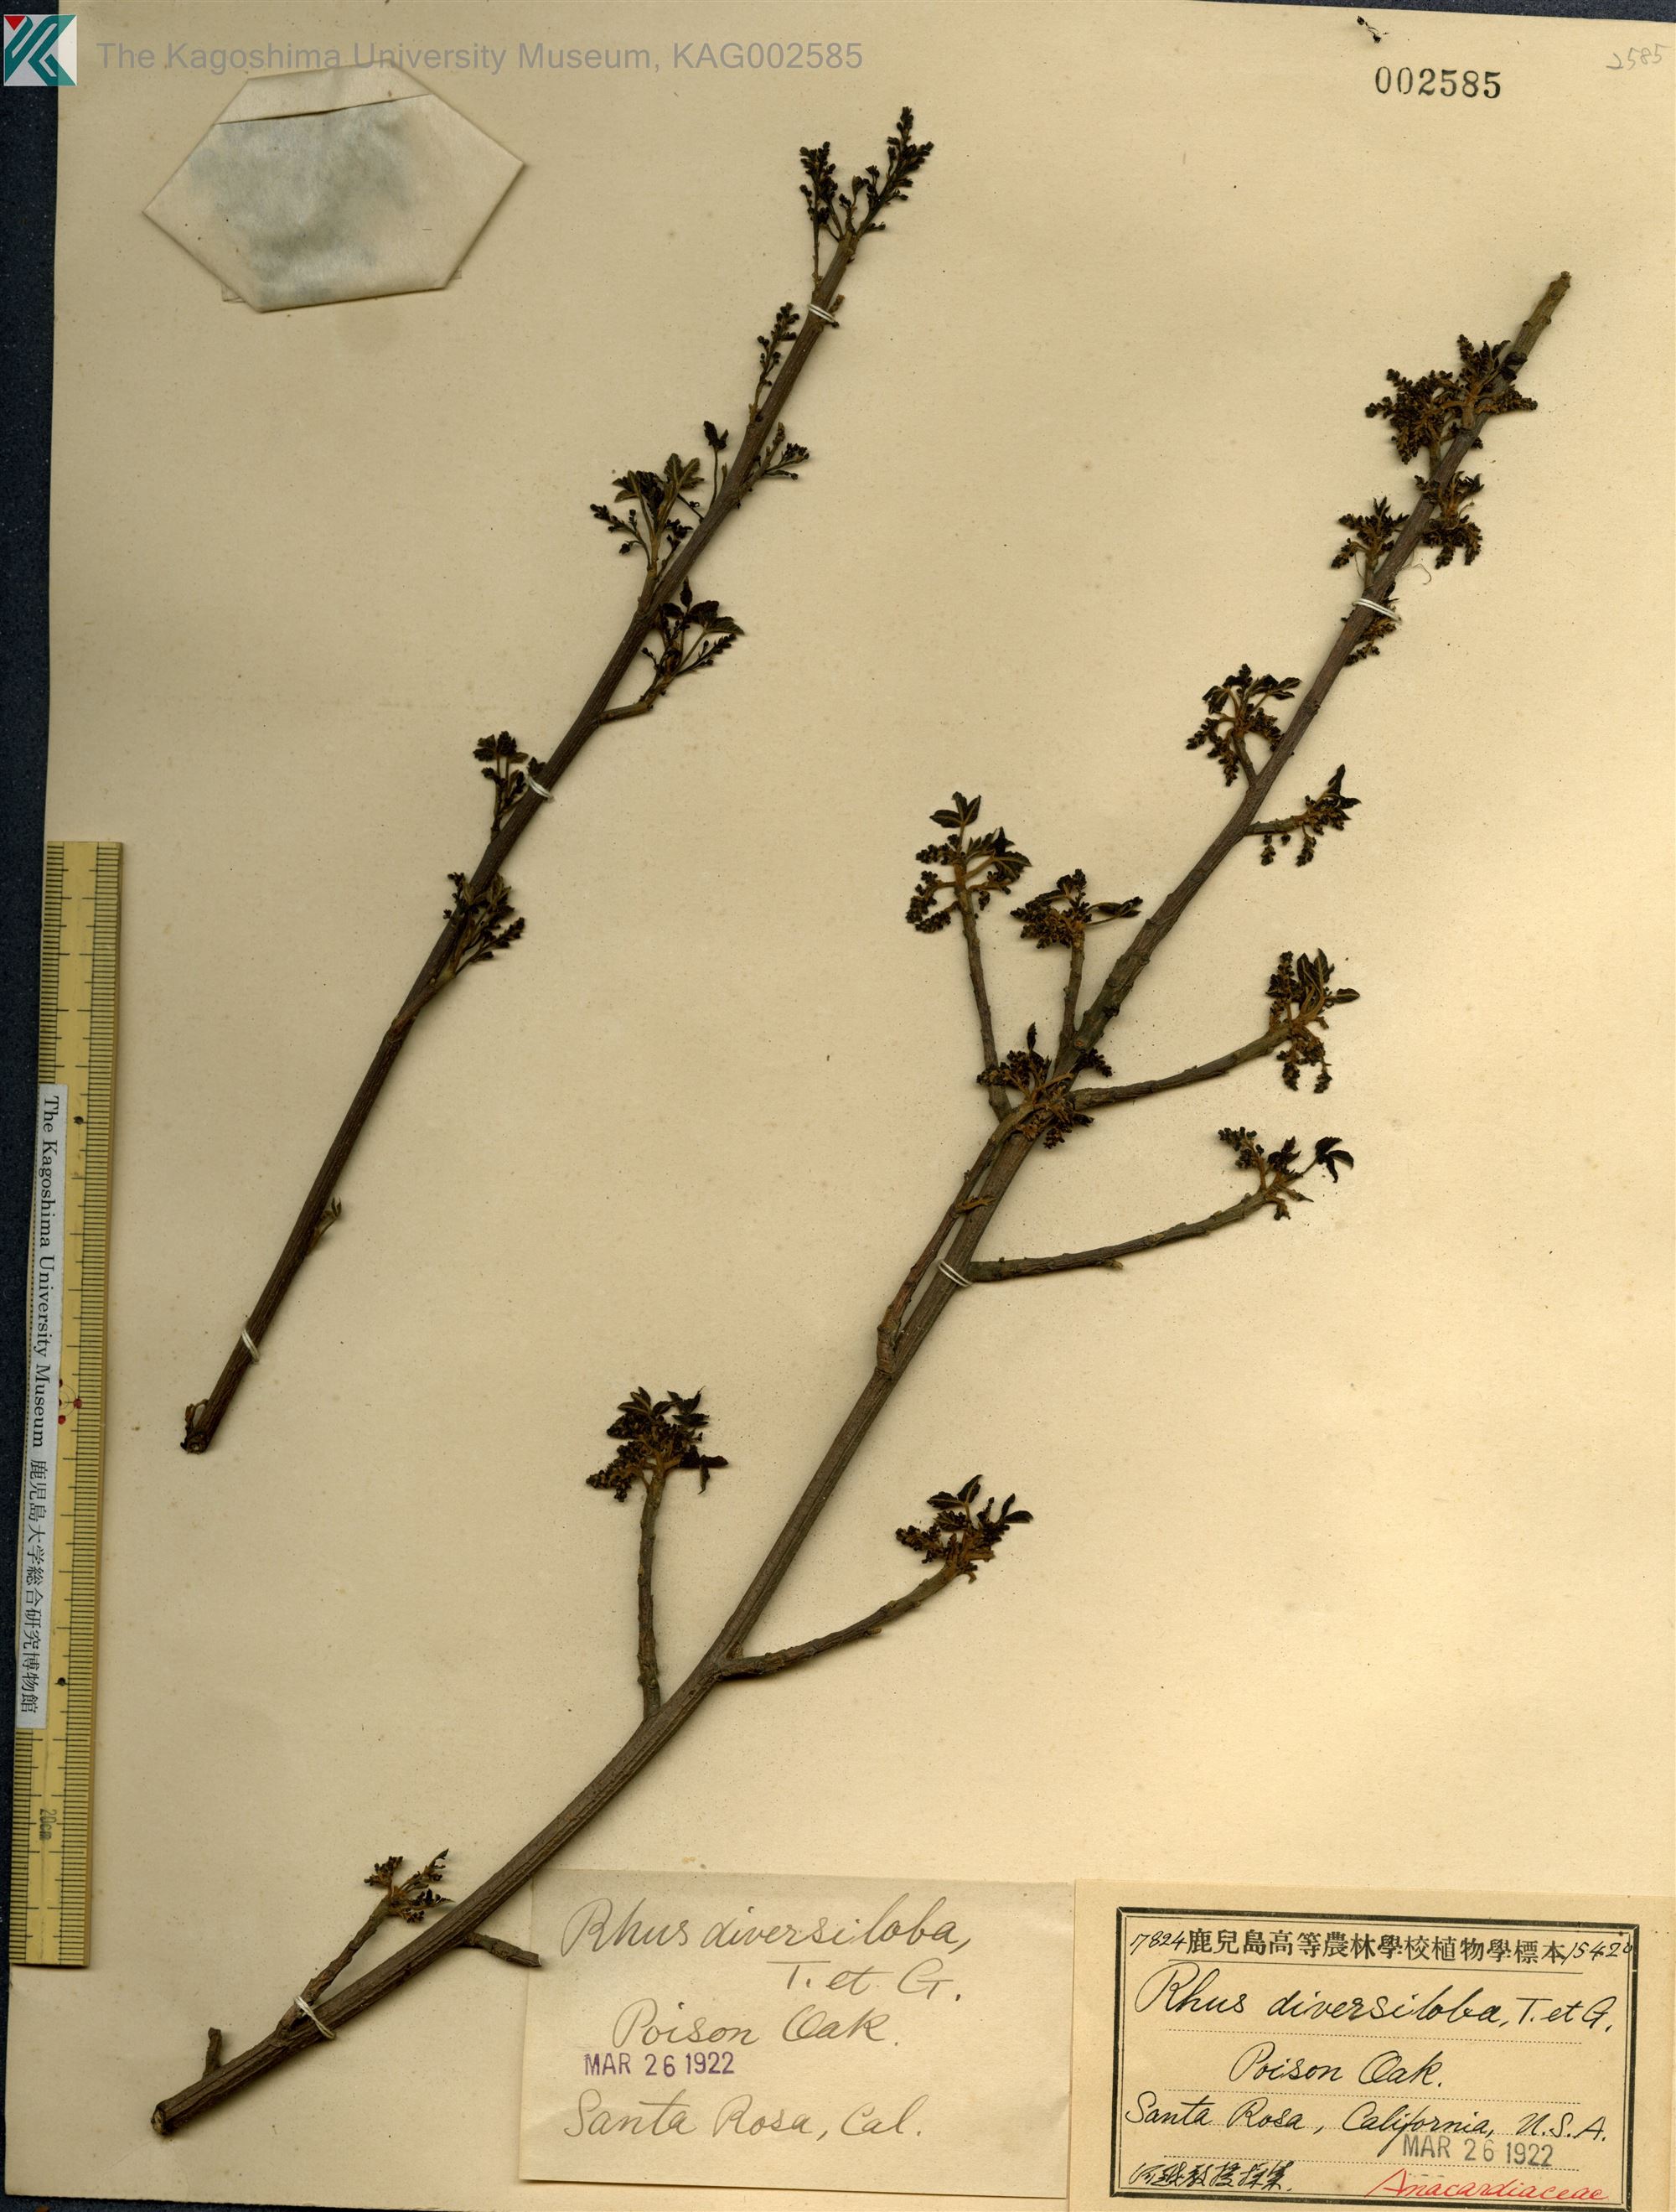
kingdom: Plantae
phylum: Tracheophyta
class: Magnoliopsida
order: Sapindales
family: Anacardiaceae
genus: Toxicodendron
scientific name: Toxicodendron diversilobum
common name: Pacific poison-oak
